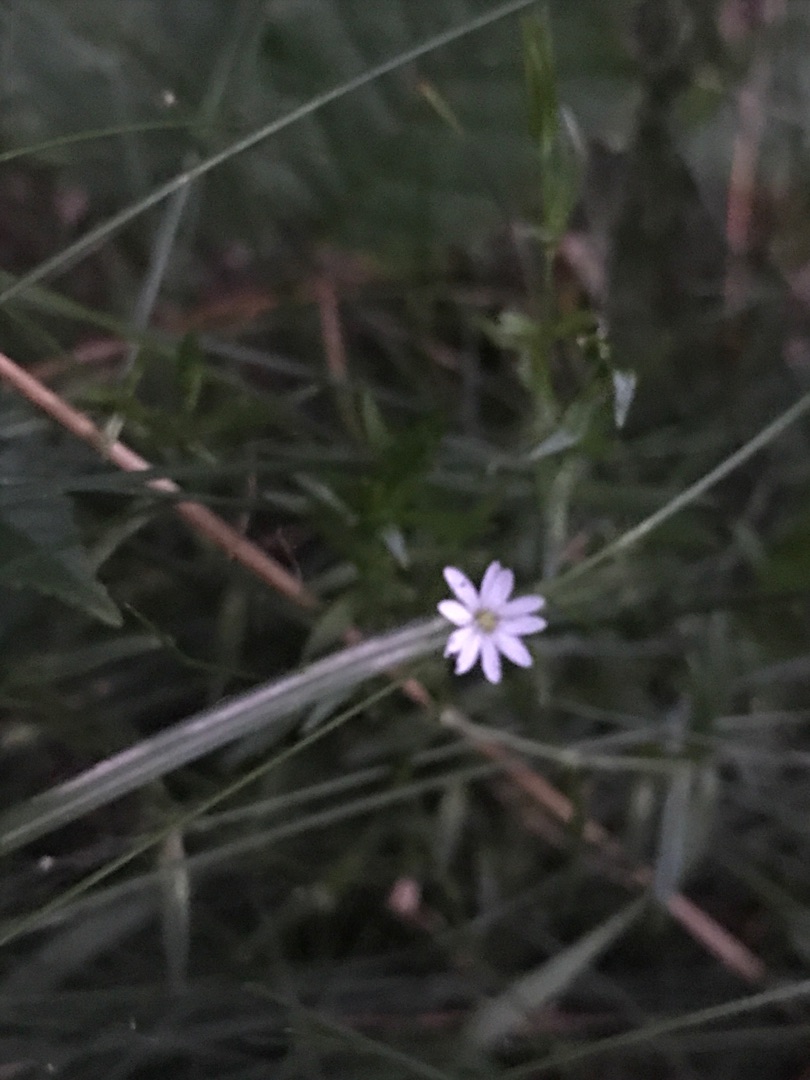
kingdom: Plantae
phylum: Tracheophyta
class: Magnoliopsida
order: Caryophyllales
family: Caryophyllaceae
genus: Stellaria
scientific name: Stellaria graminea
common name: Græsbladet fladstjerne
